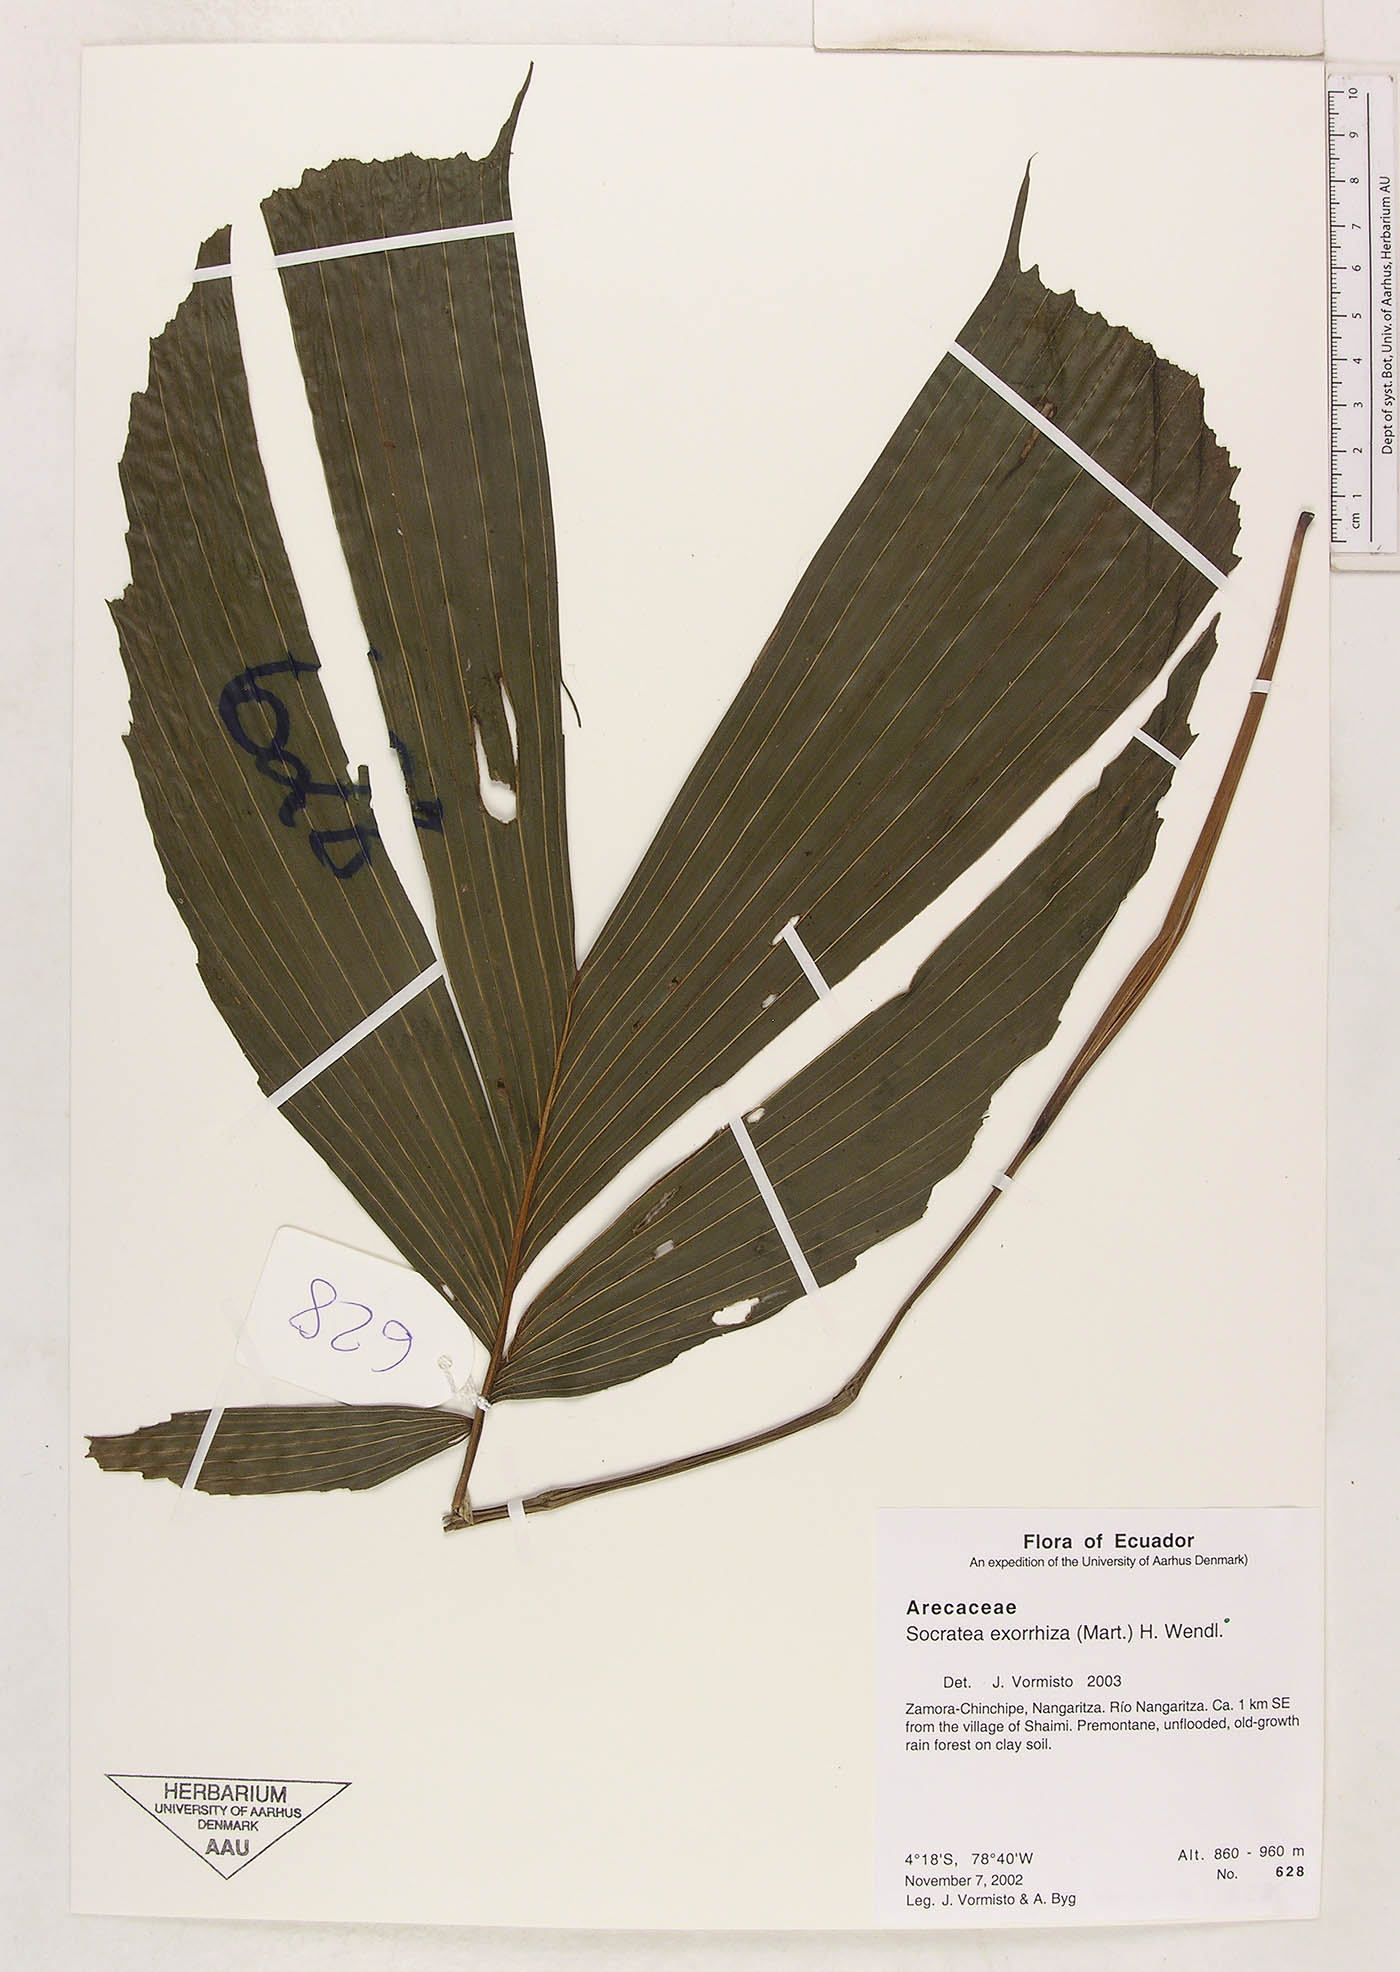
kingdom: Plantae
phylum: Tracheophyta
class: Liliopsida
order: Arecales
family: Arecaceae
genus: Socratea
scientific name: Socratea exorrhiza
